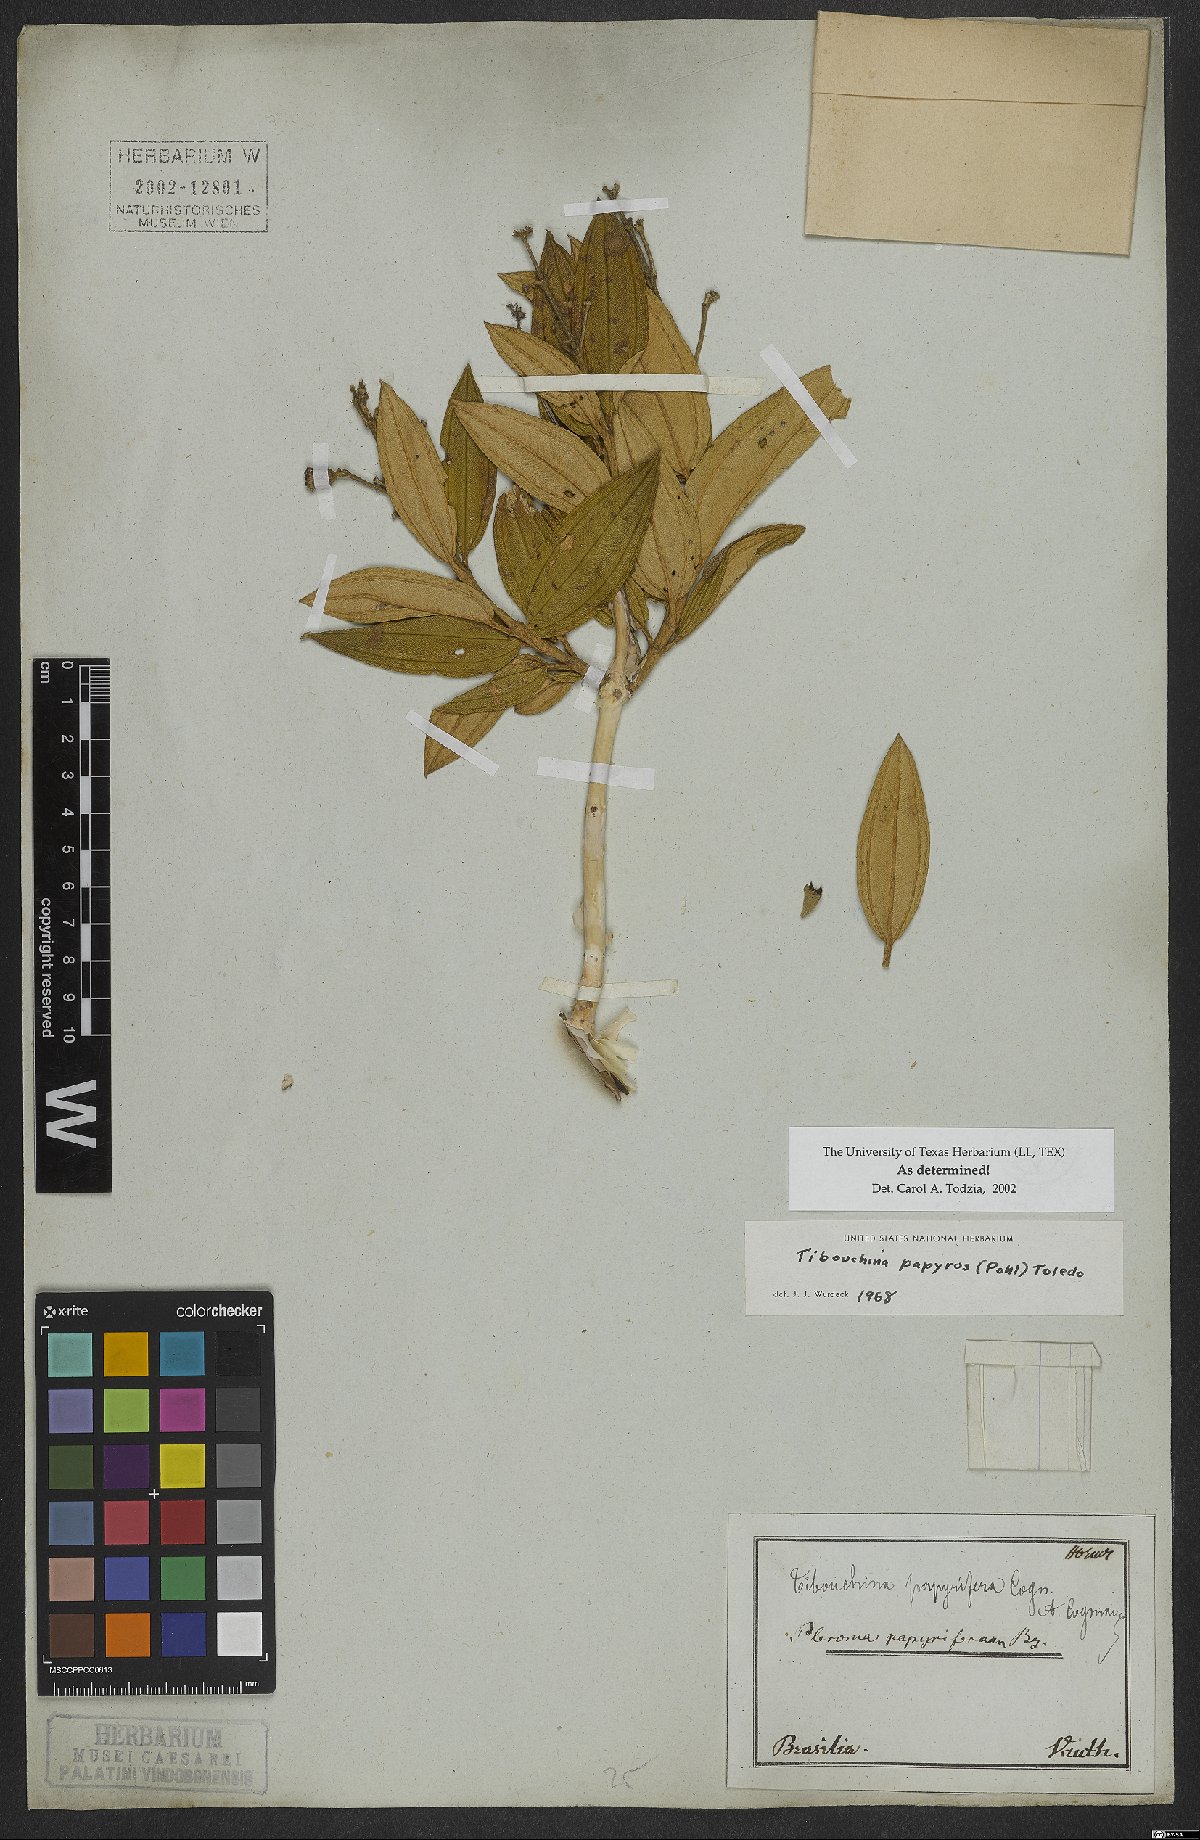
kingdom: Plantae
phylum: Tracheophyta
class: Magnoliopsida
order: Myrtales
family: Melastomataceae
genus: Pleroma
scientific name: Pleroma papyriferum
